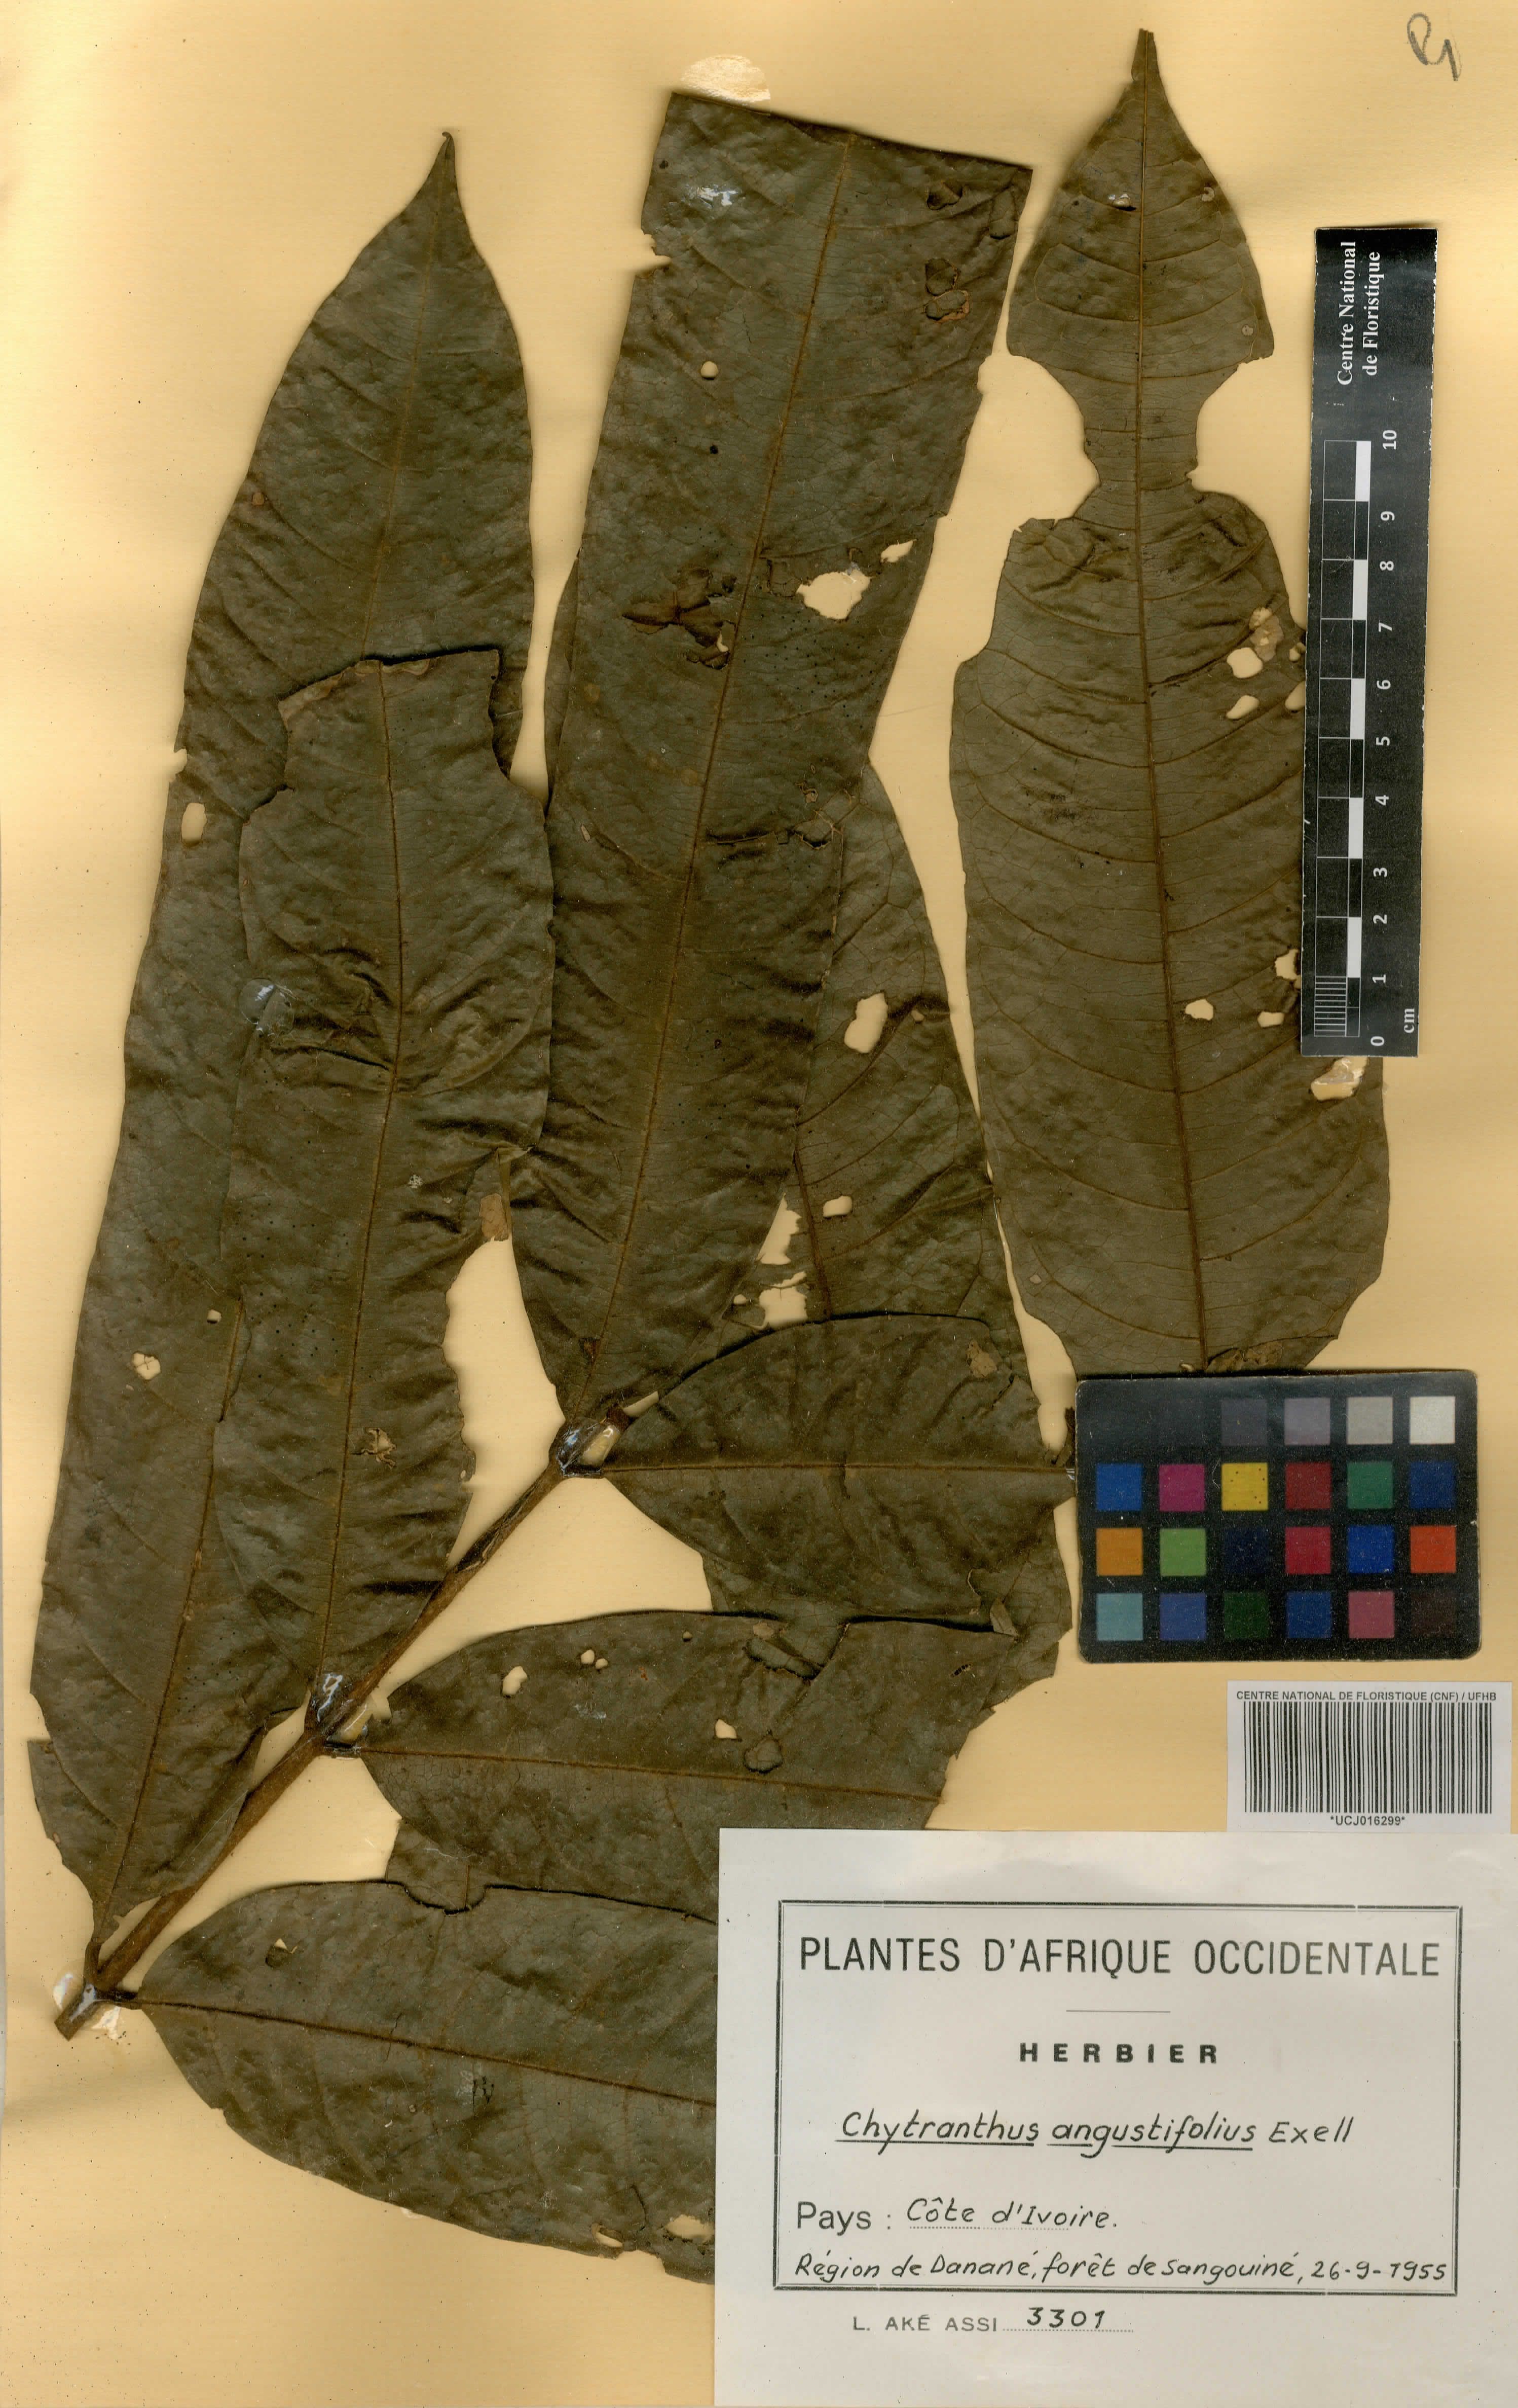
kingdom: Plantae
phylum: Tracheophyta
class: Magnoliopsida
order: Sapindales
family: Sapindaceae
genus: Chytranthus
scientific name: Chytranthus angustifolius
